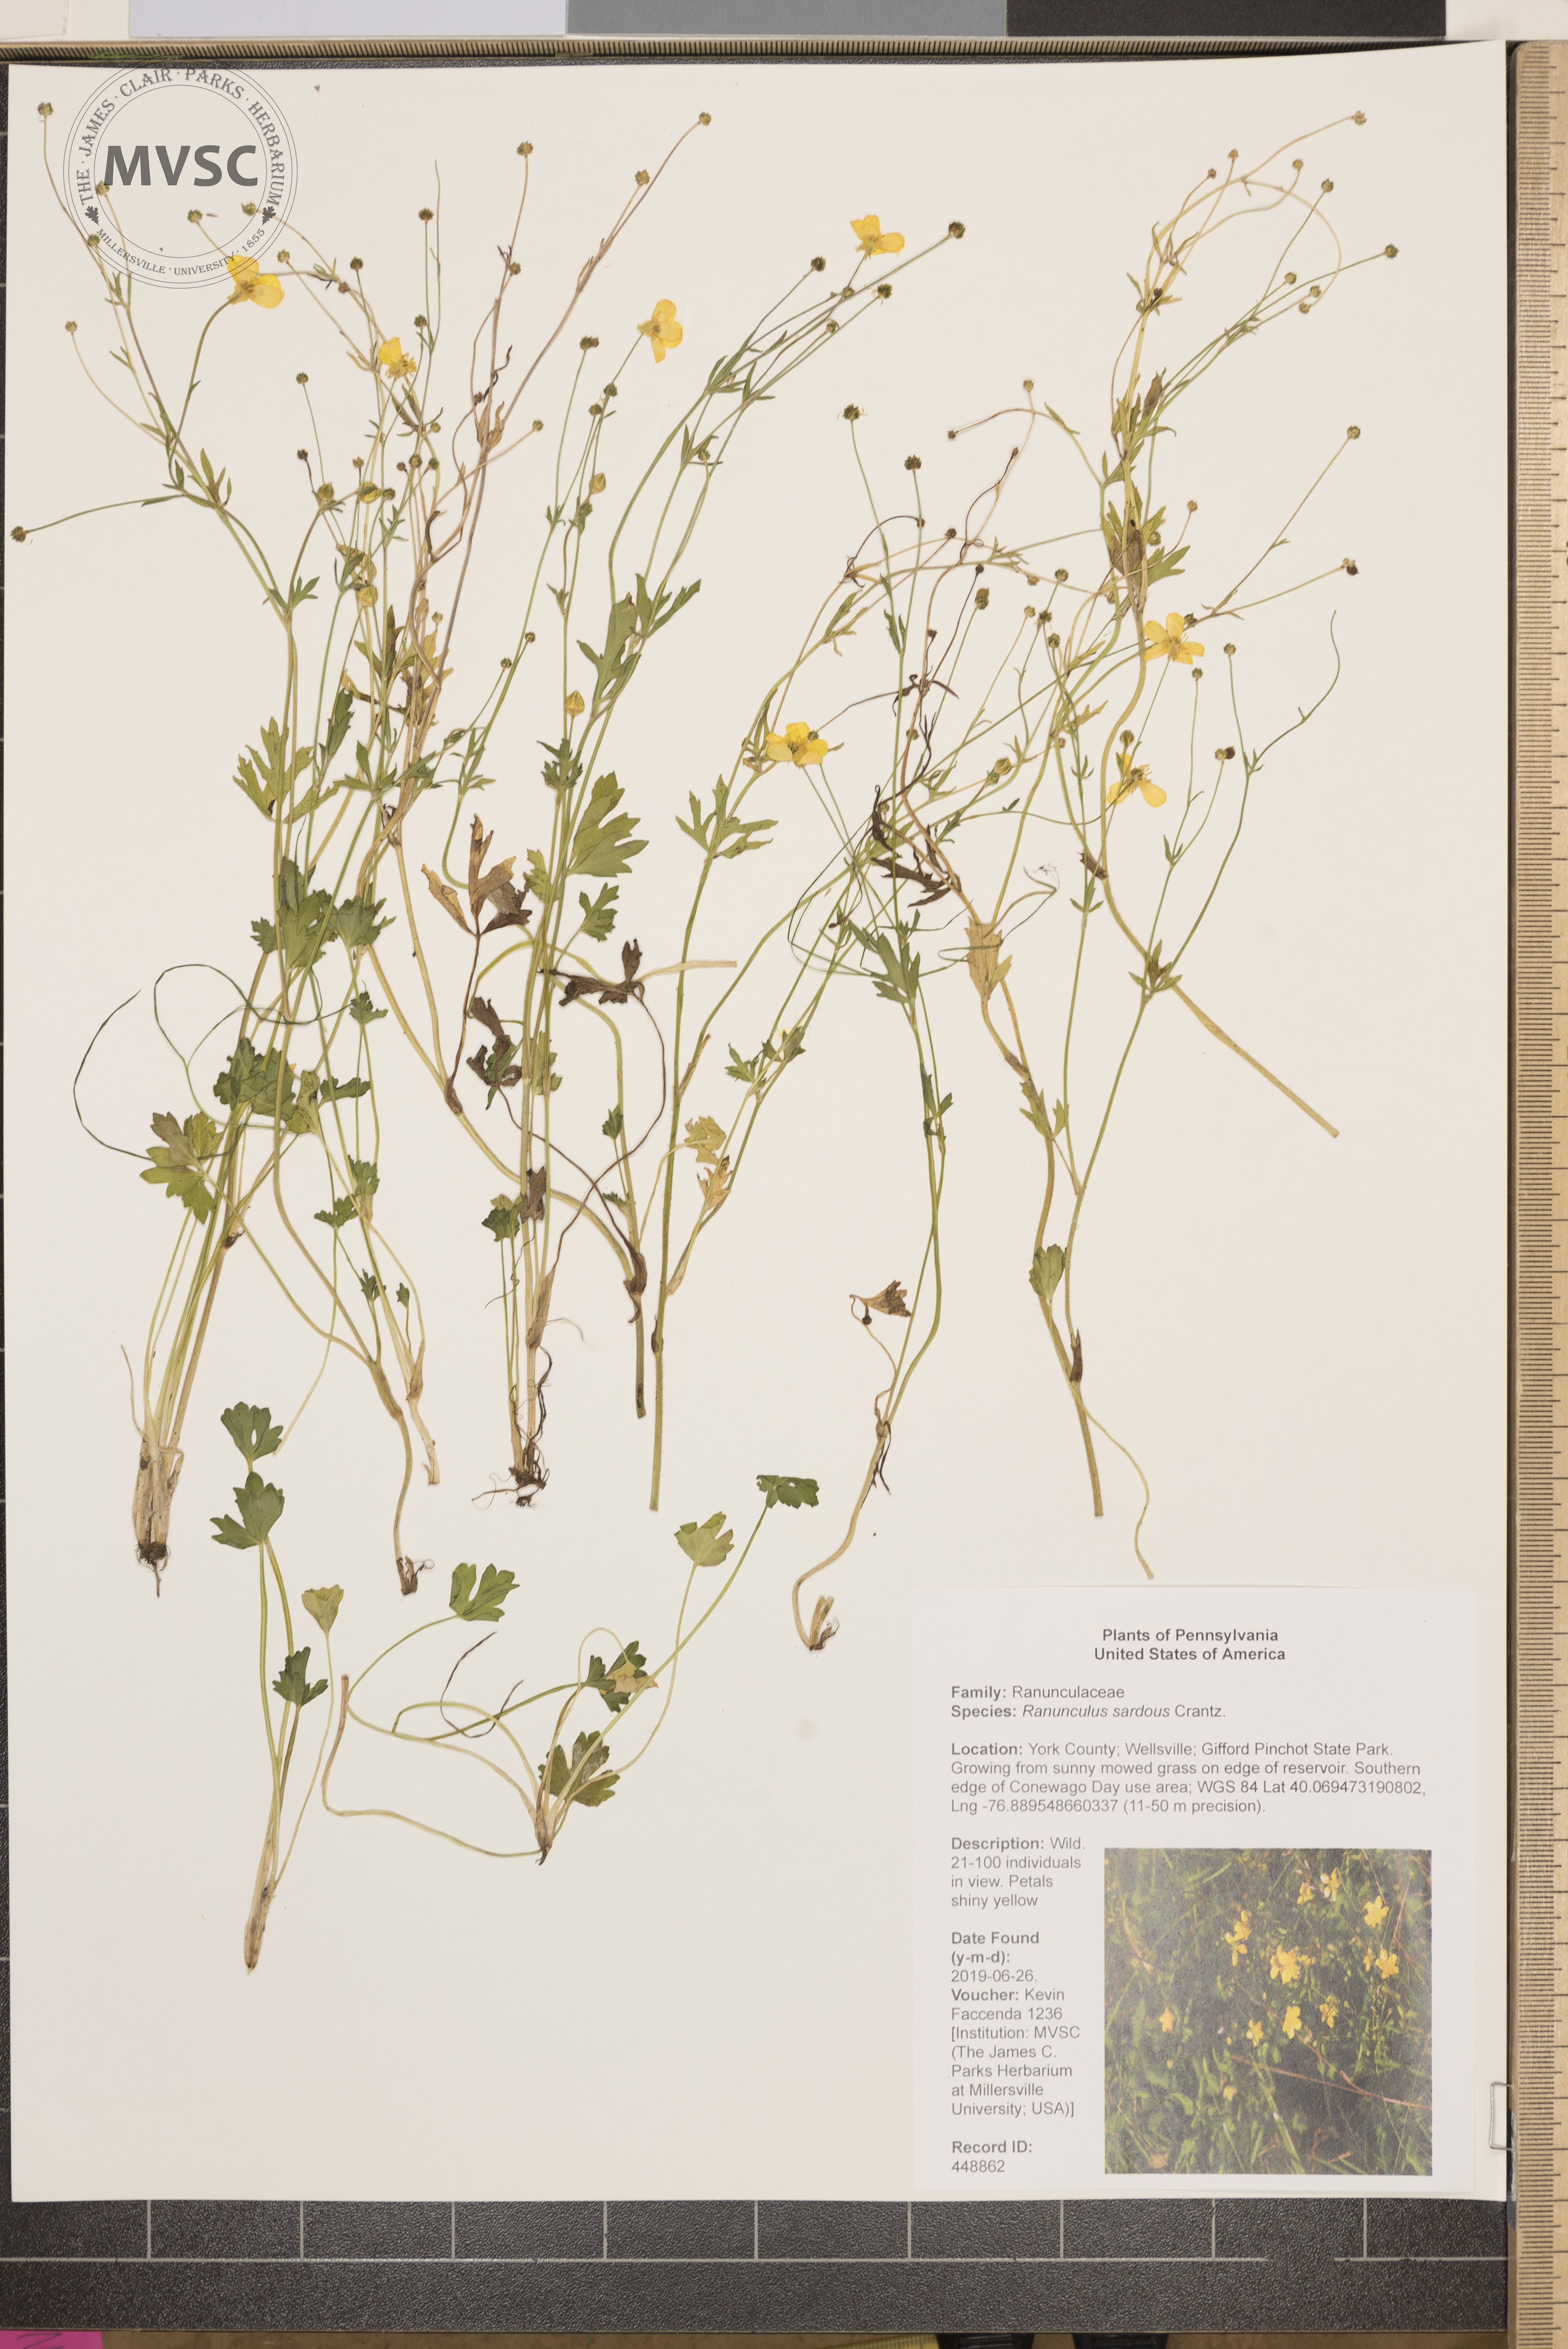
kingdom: Plantae
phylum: Tracheophyta
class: Magnoliopsida
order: Ranunculales
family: Ranunculaceae
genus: Ranunculus
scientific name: Ranunculus sardous
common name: Hairy buttercup
